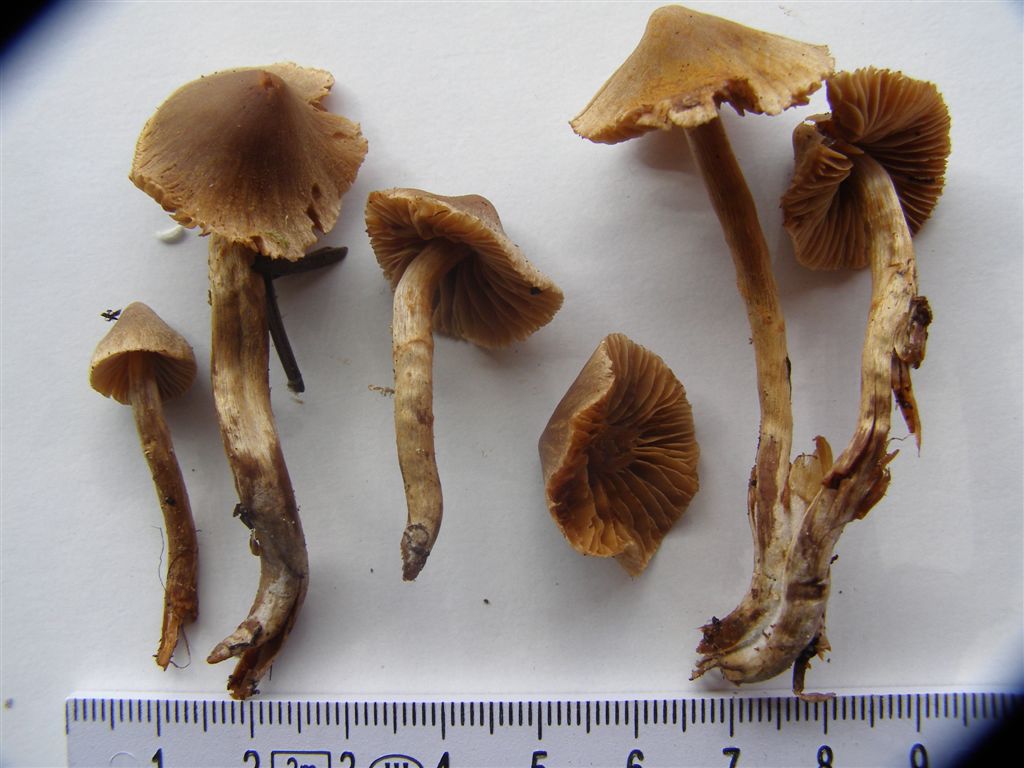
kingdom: Fungi
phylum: Basidiomycota
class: Agaricomycetes
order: Agaricales
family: Cortinariaceae
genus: Cortinarius
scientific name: Cortinarius castaneopallidus
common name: bronzetrævlet slørhat
